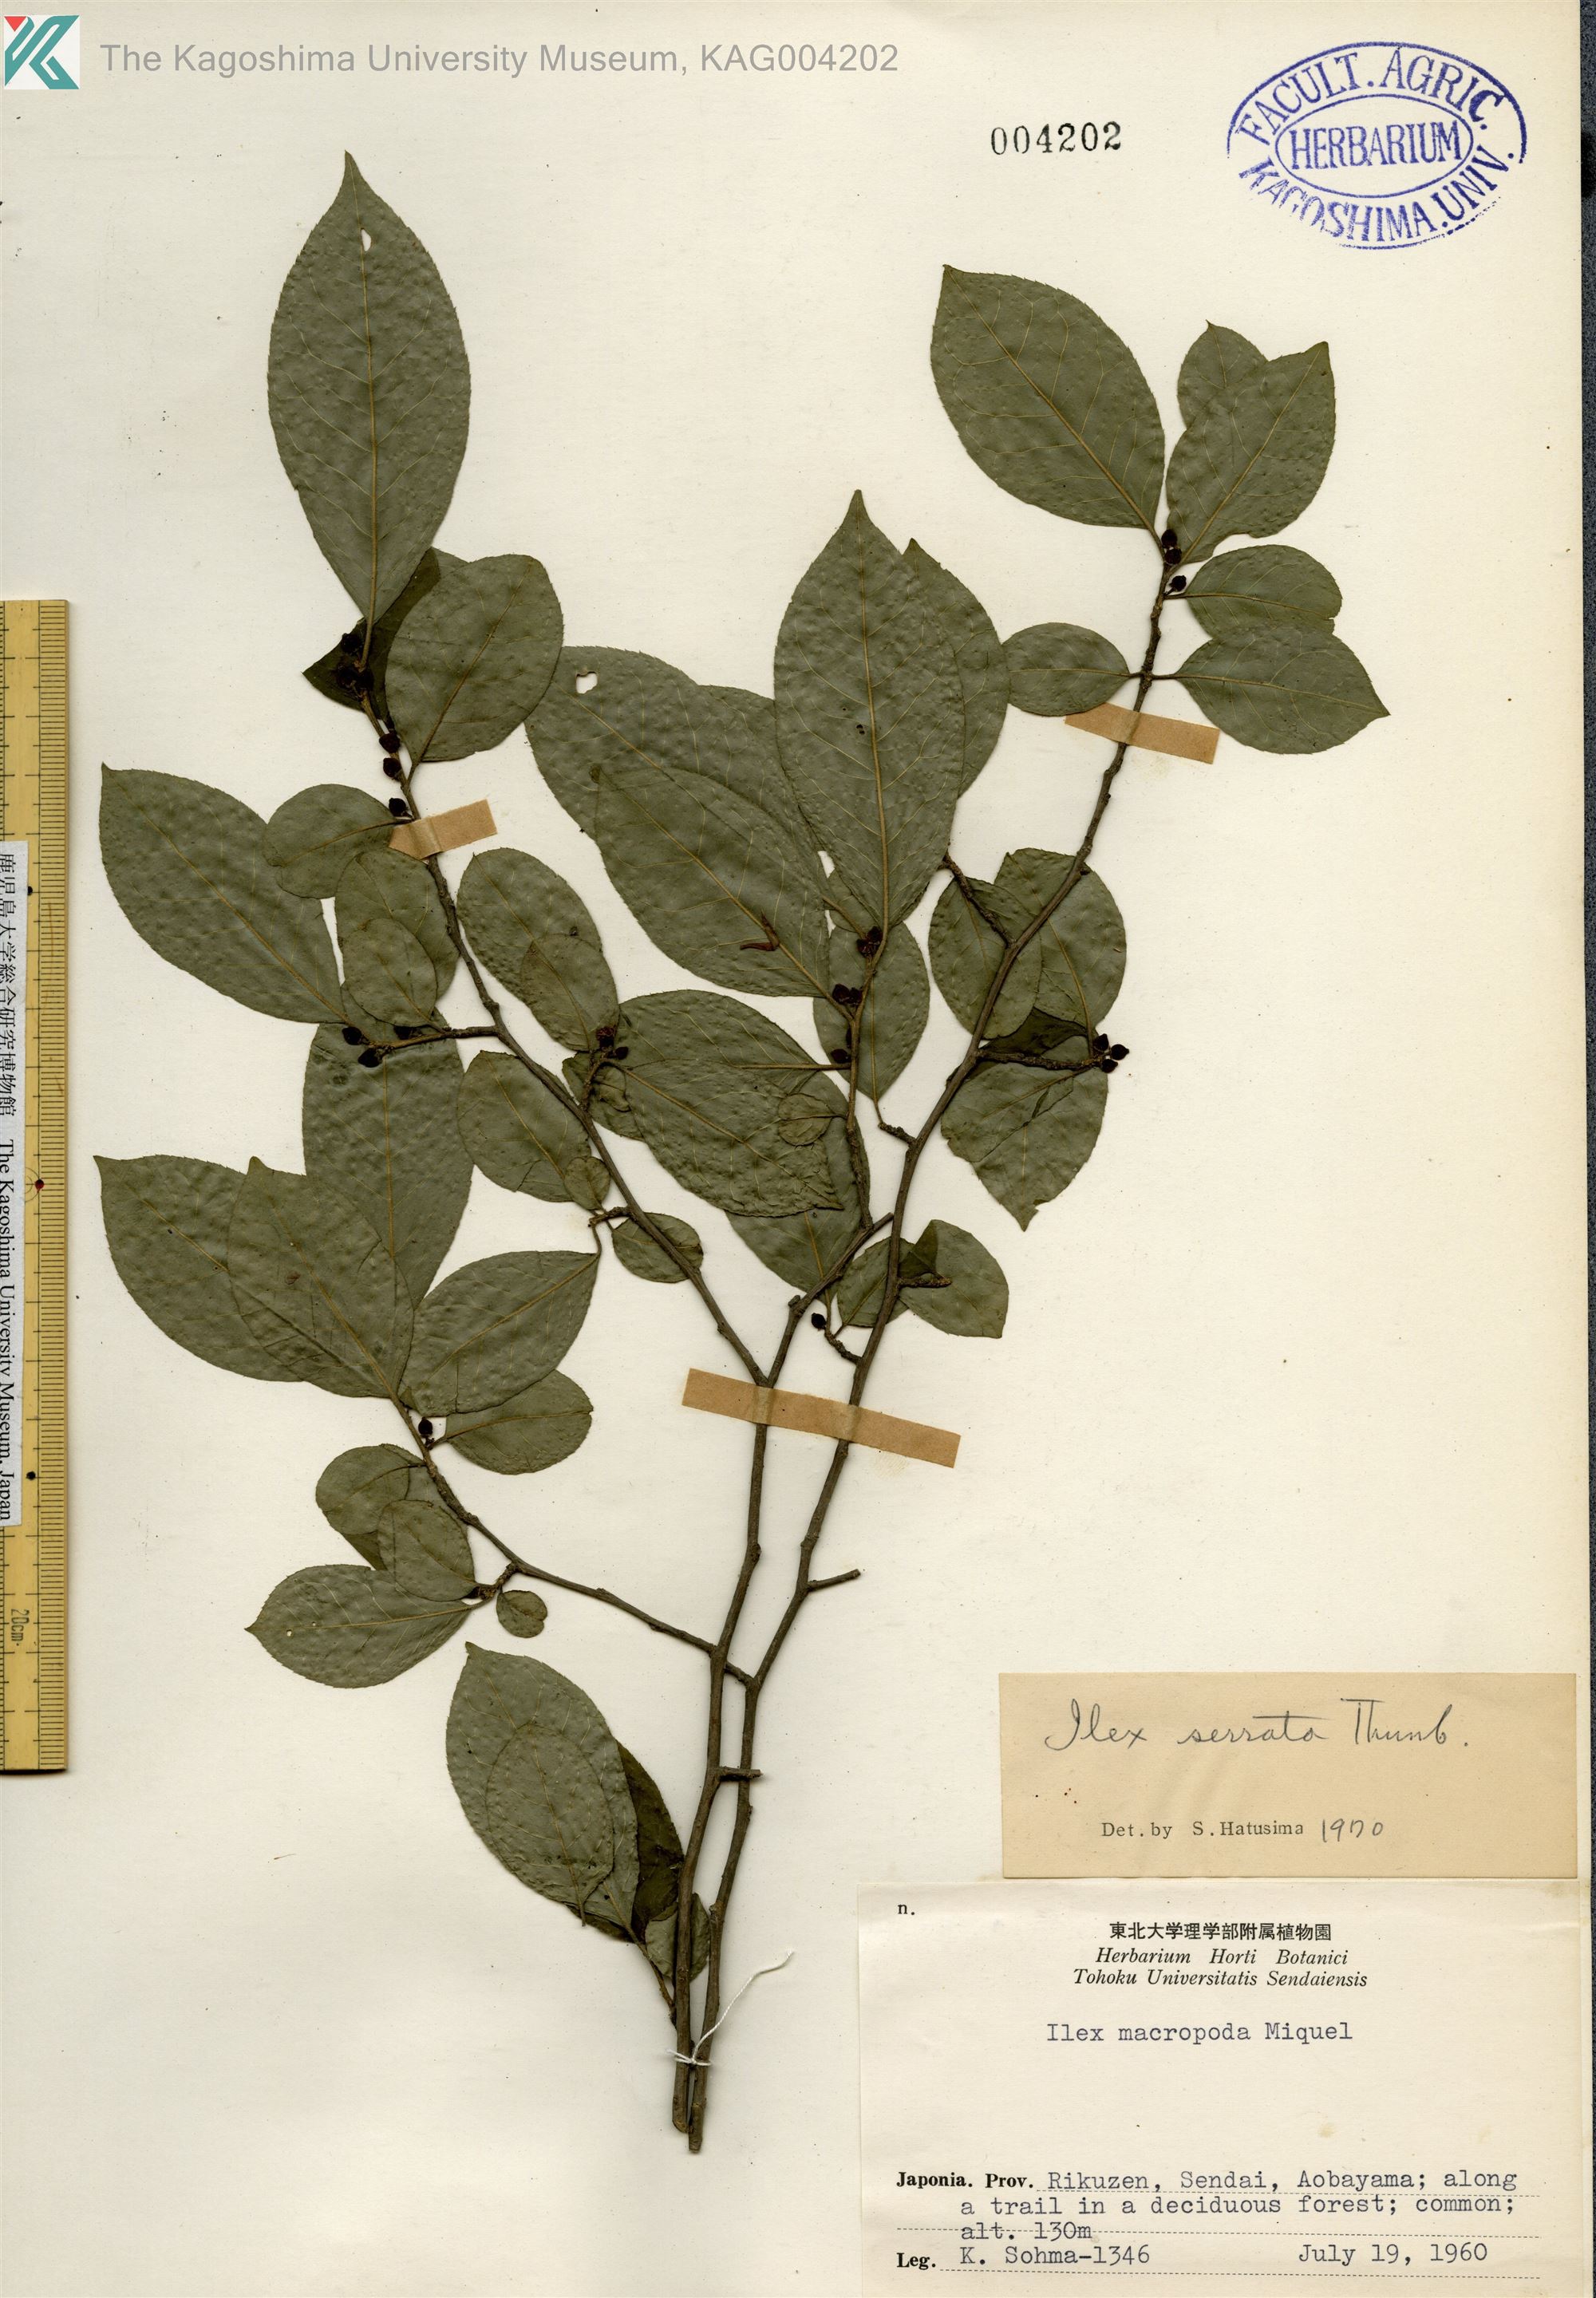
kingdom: Plantae
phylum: Tracheophyta
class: Magnoliopsida
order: Aquifoliales
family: Aquifoliaceae
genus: Ilex
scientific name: Ilex serrata
